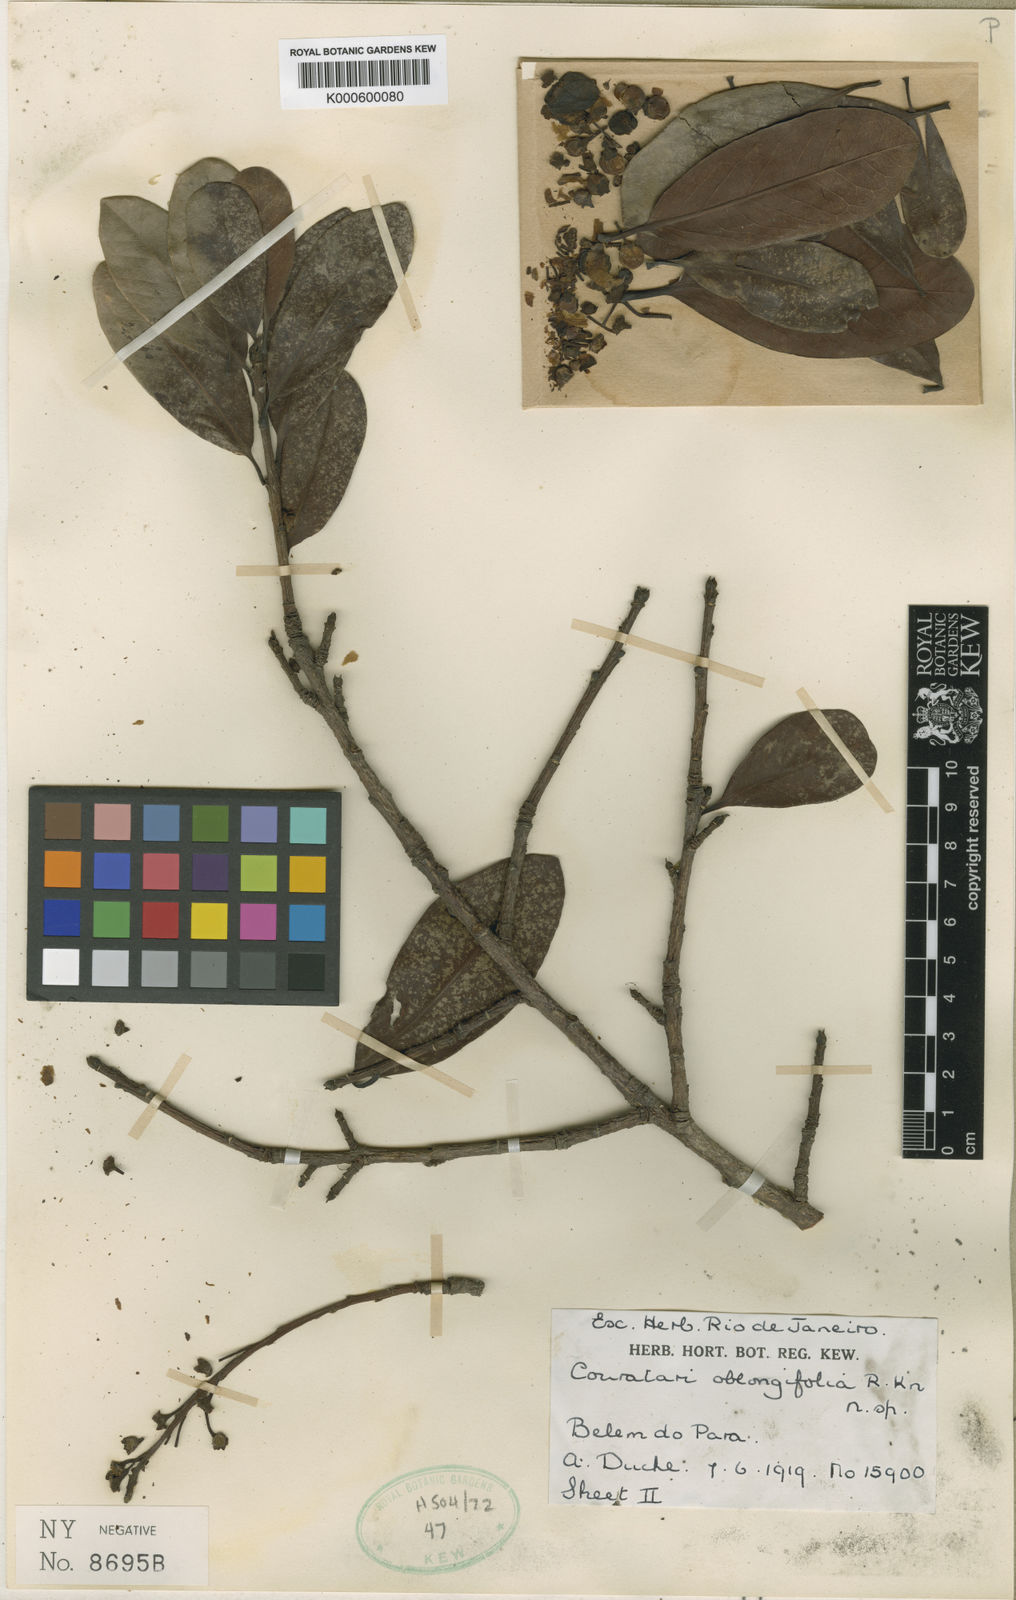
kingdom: Plantae
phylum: Tracheophyta
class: Magnoliopsida
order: Ericales
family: Lecythidaceae
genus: Couratari
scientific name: Couratari oblongifolia
